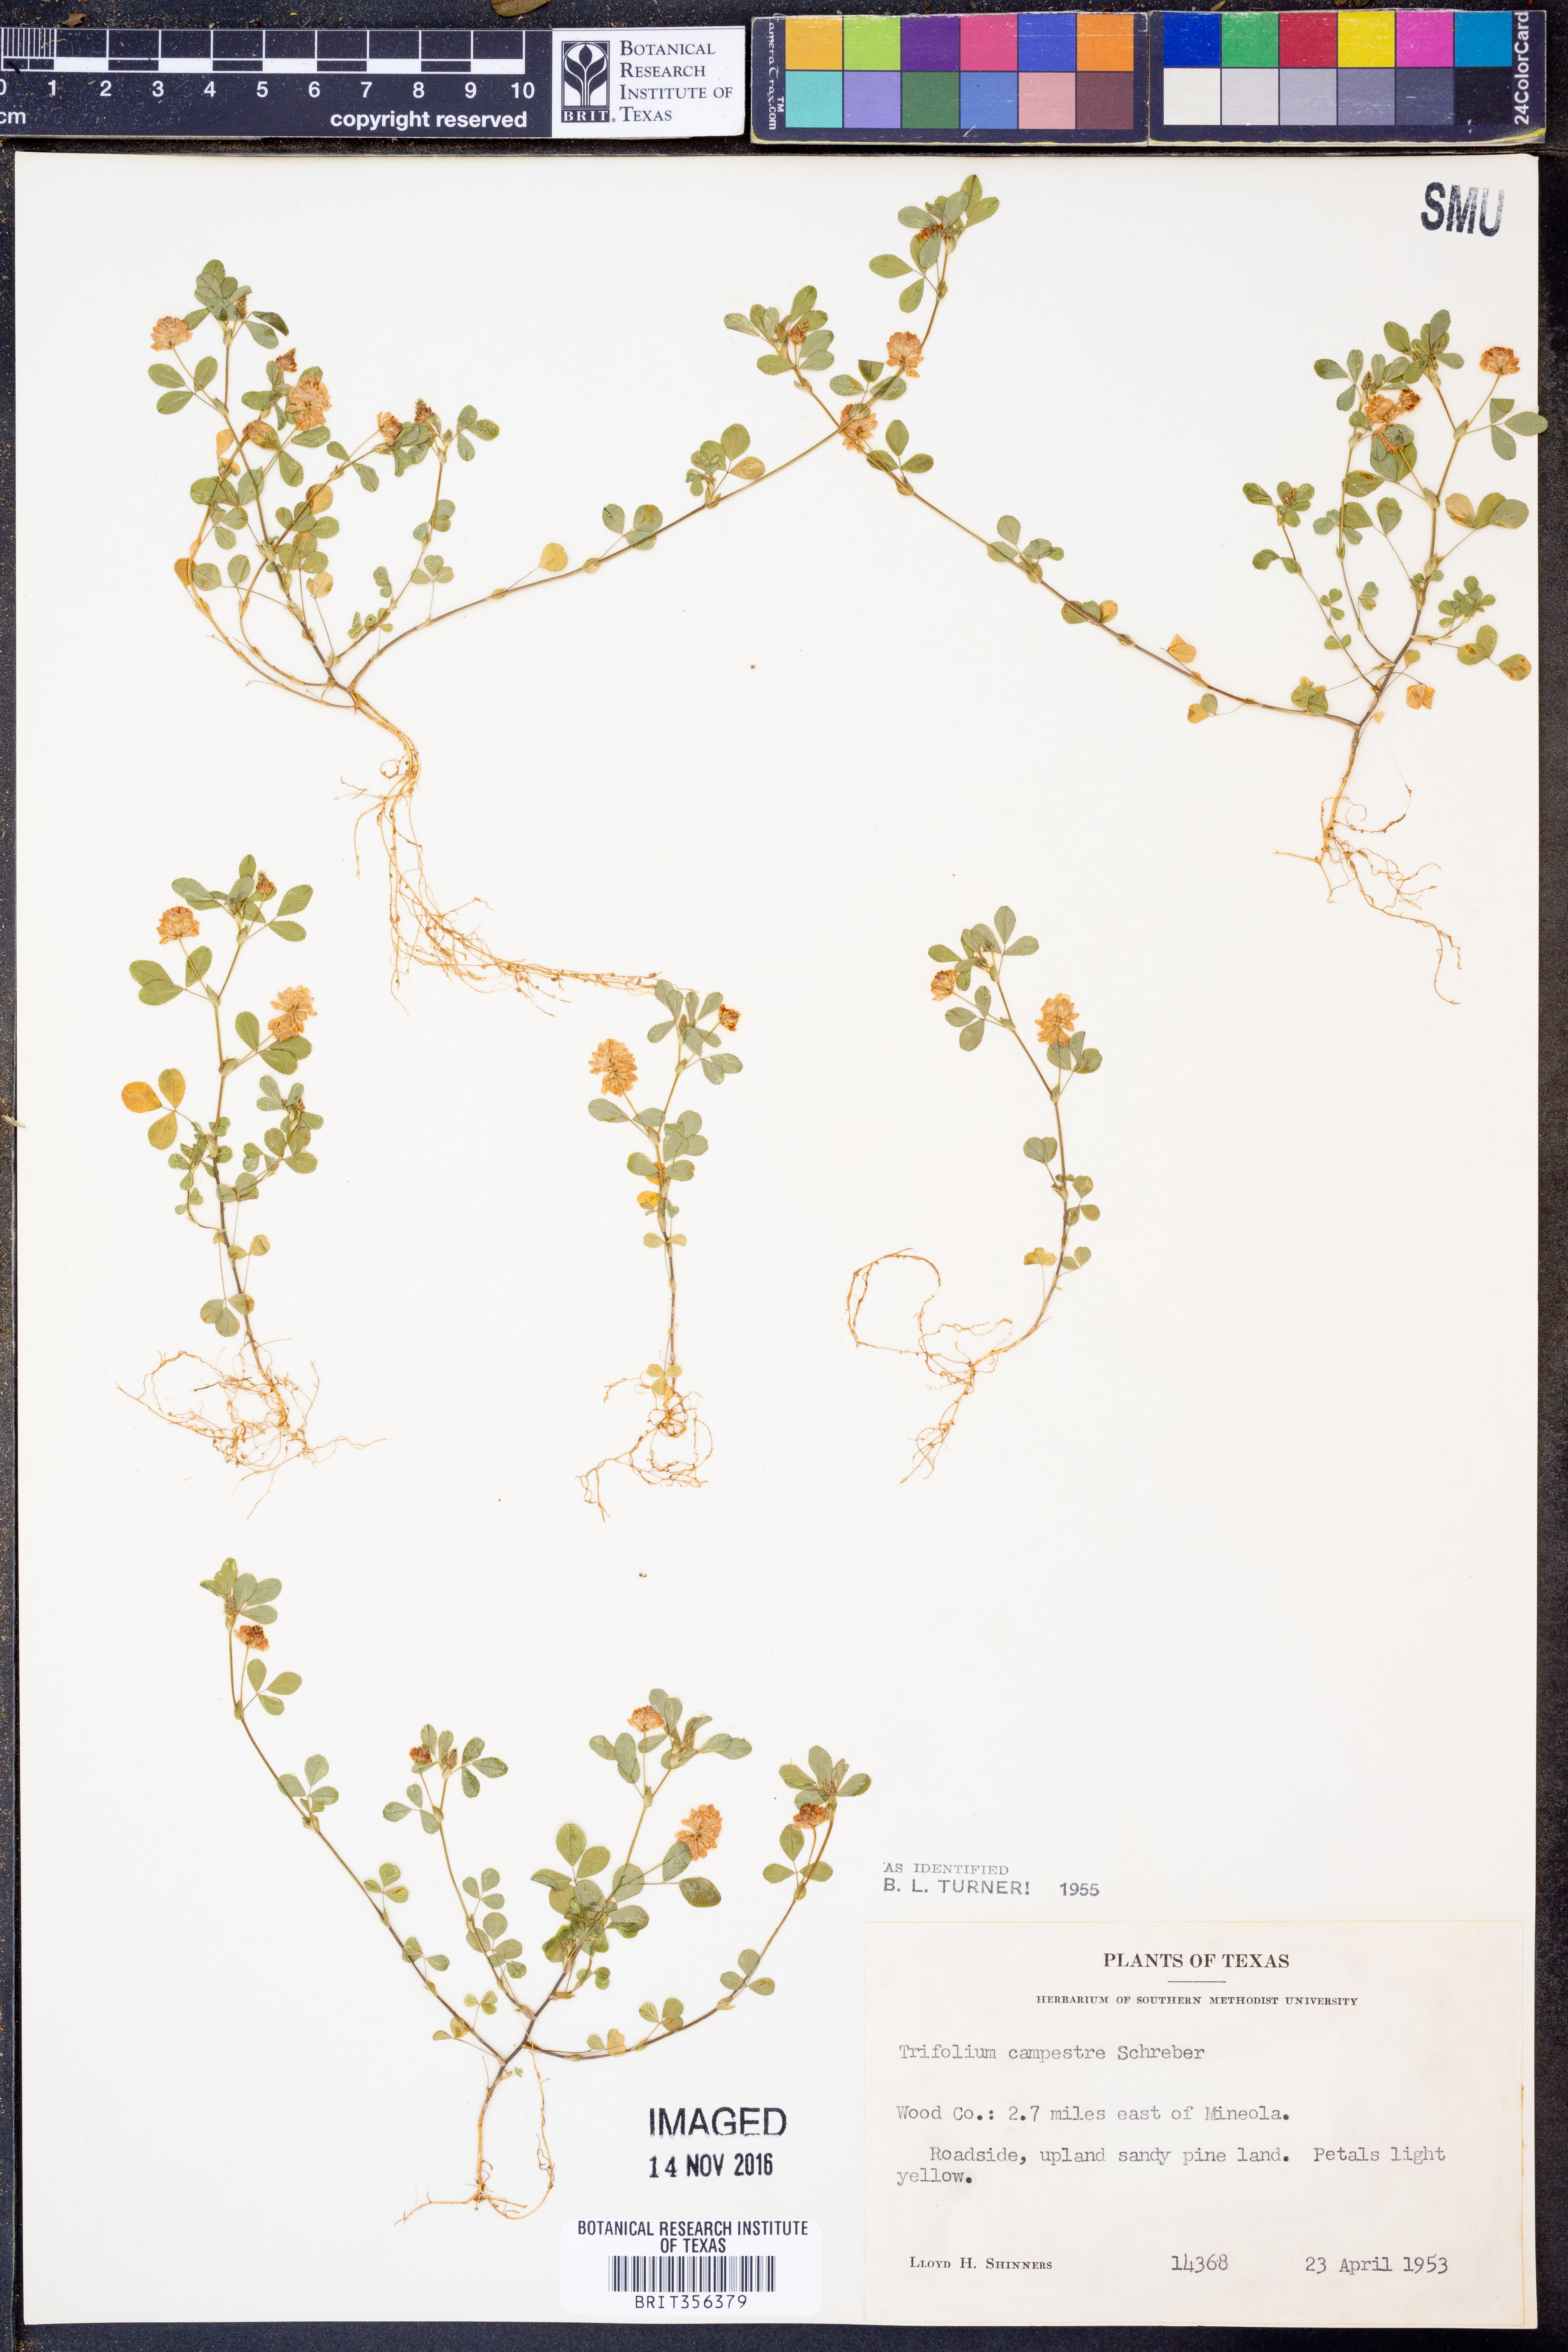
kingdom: Plantae
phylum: Tracheophyta
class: Magnoliopsida
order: Fabales
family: Fabaceae
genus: Trifolium
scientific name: Trifolium campestre
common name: Field clover
